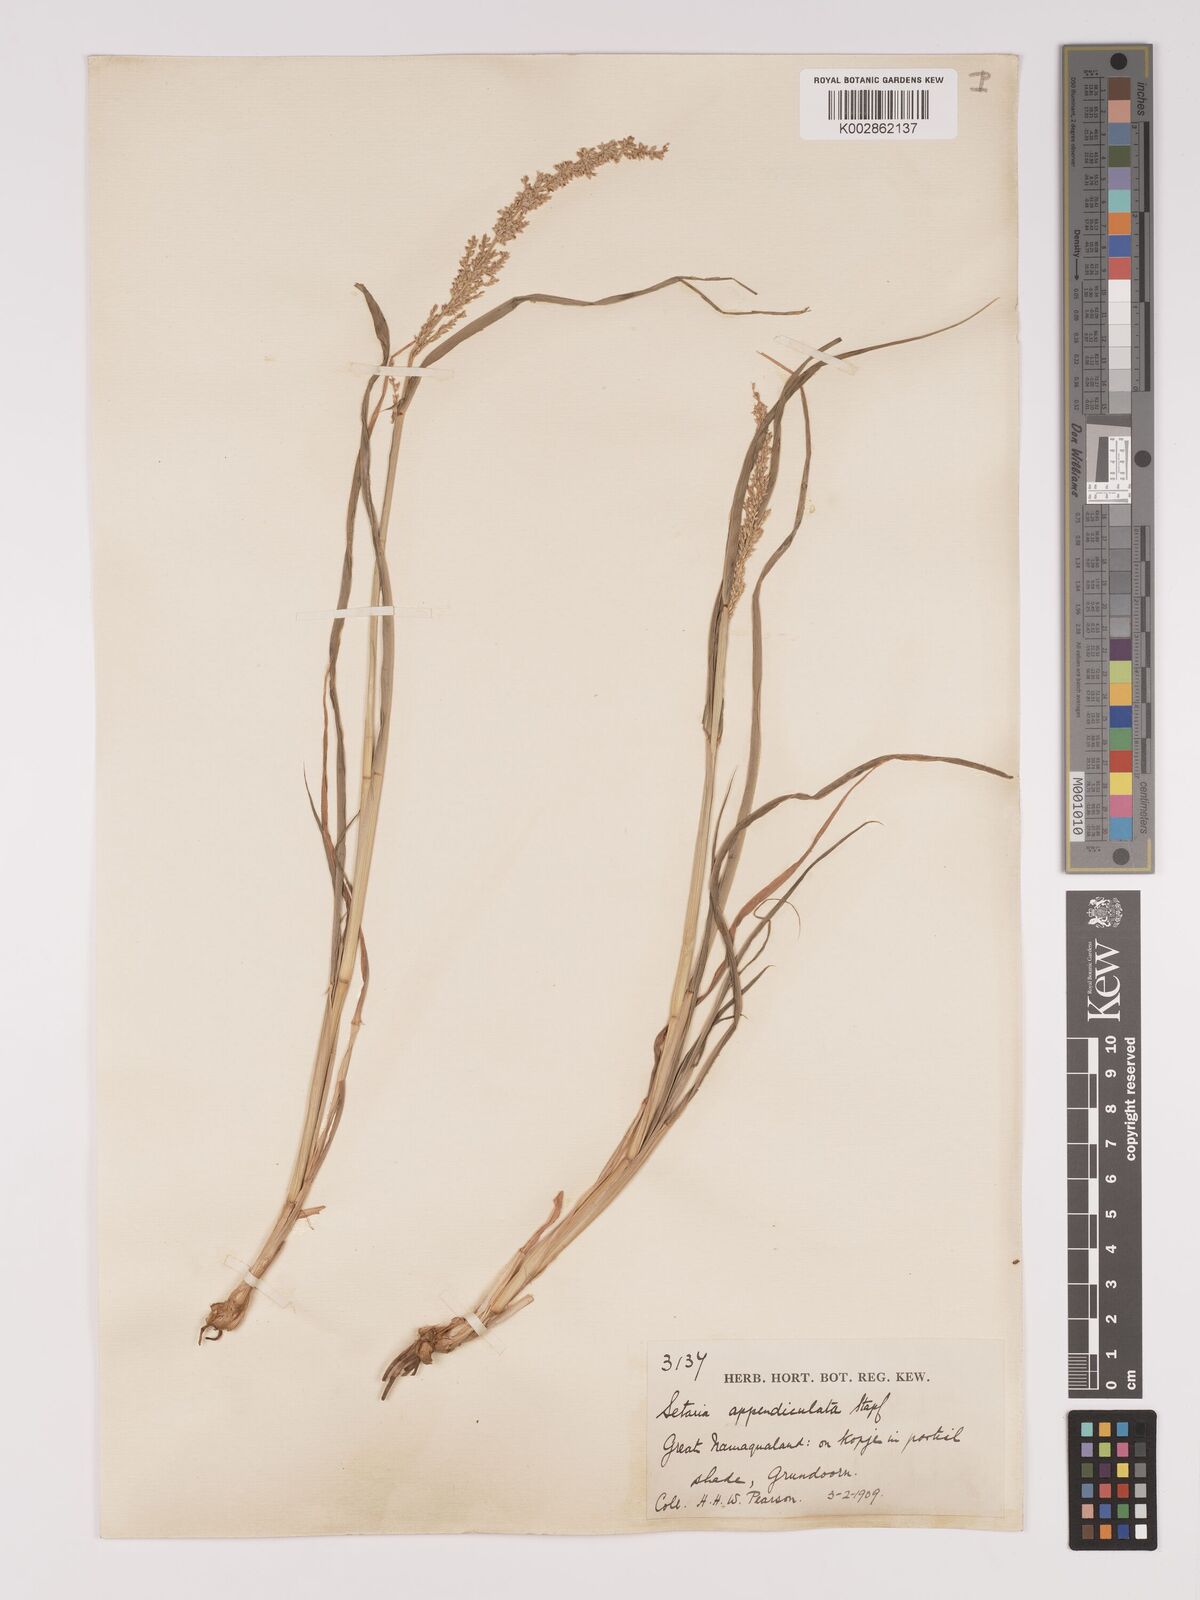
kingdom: Plantae
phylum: Tracheophyta
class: Liliopsida
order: Poales
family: Poaceae
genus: Setaria
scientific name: Setaria appendiculata
